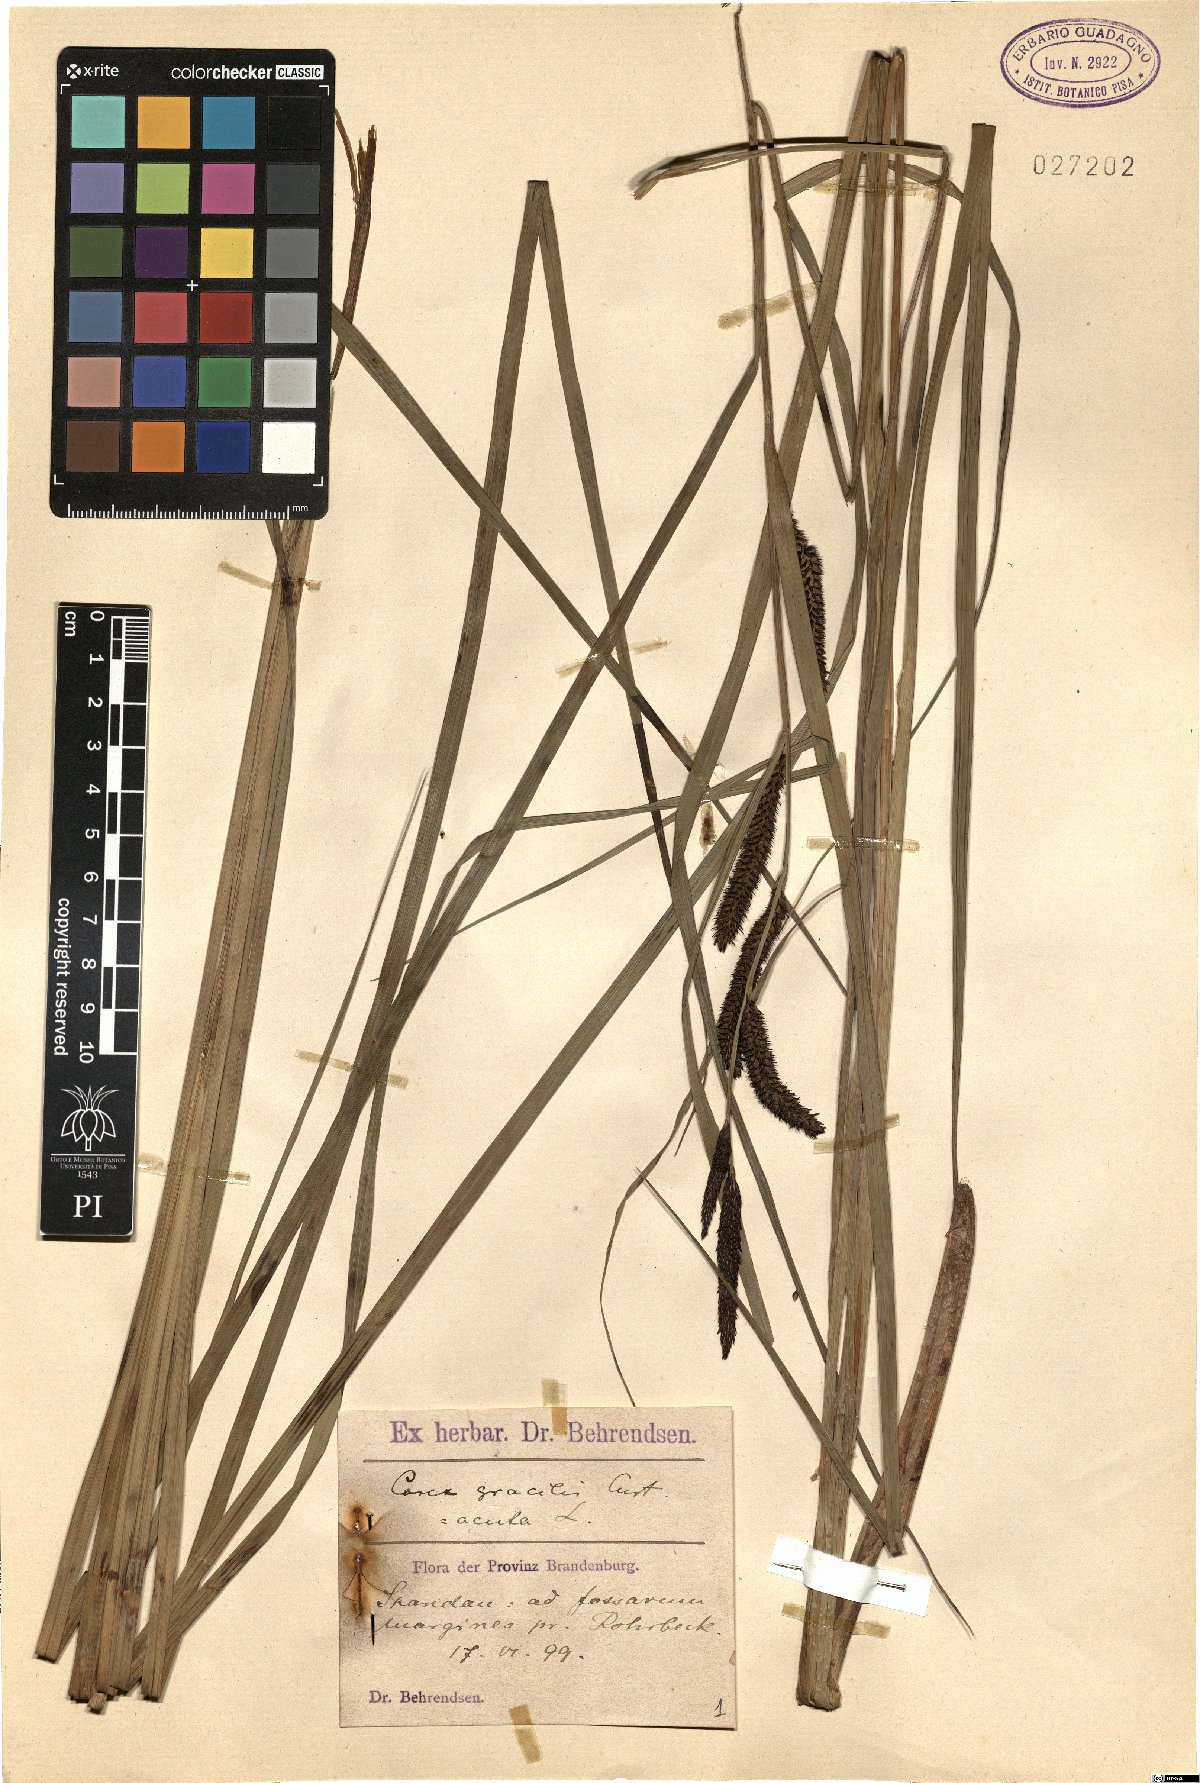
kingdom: Plantae
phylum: Tracheophyta
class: Liliopsida
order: Poales
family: Cyperaceae
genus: Carex
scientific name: Carex acuta
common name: Slender tufted-sedge
